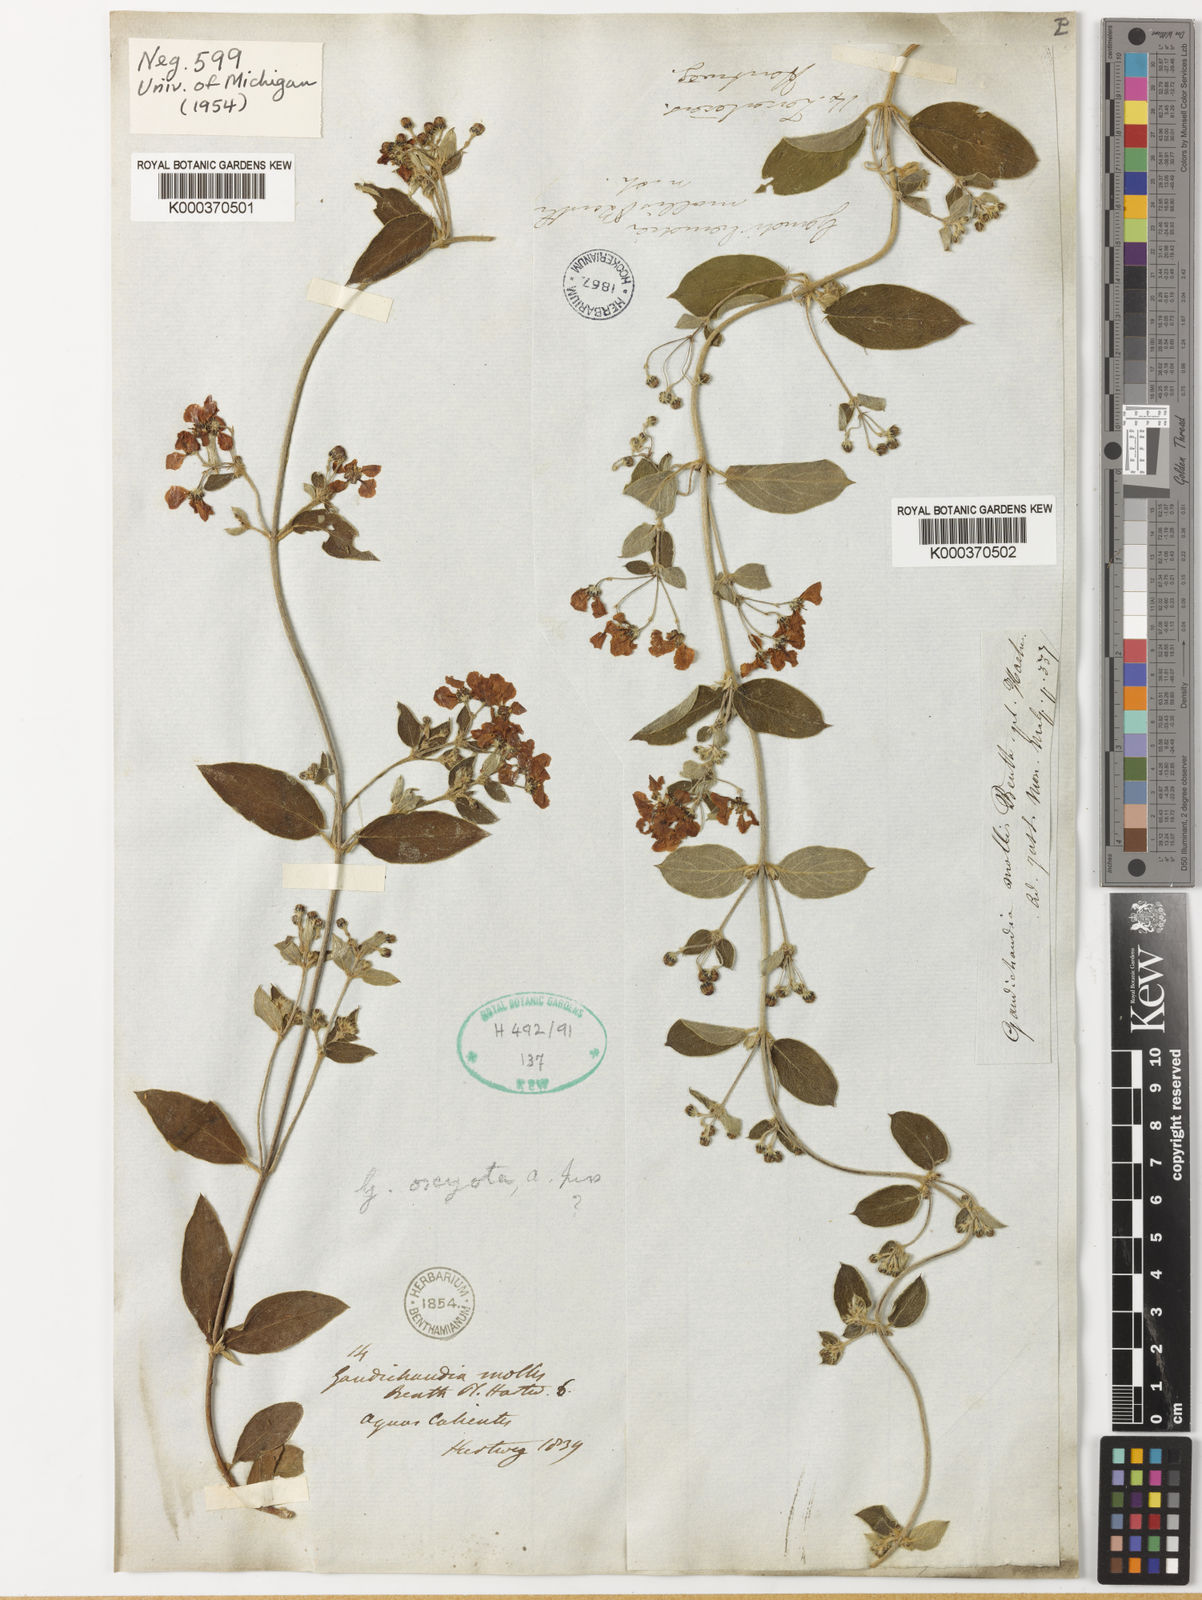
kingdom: Plantae
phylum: Tracheophyta
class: Magnoliopsida
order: Malpighiales
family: Malpighiaceae
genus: Gaudichaudia
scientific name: Gaudichaudia mollis
